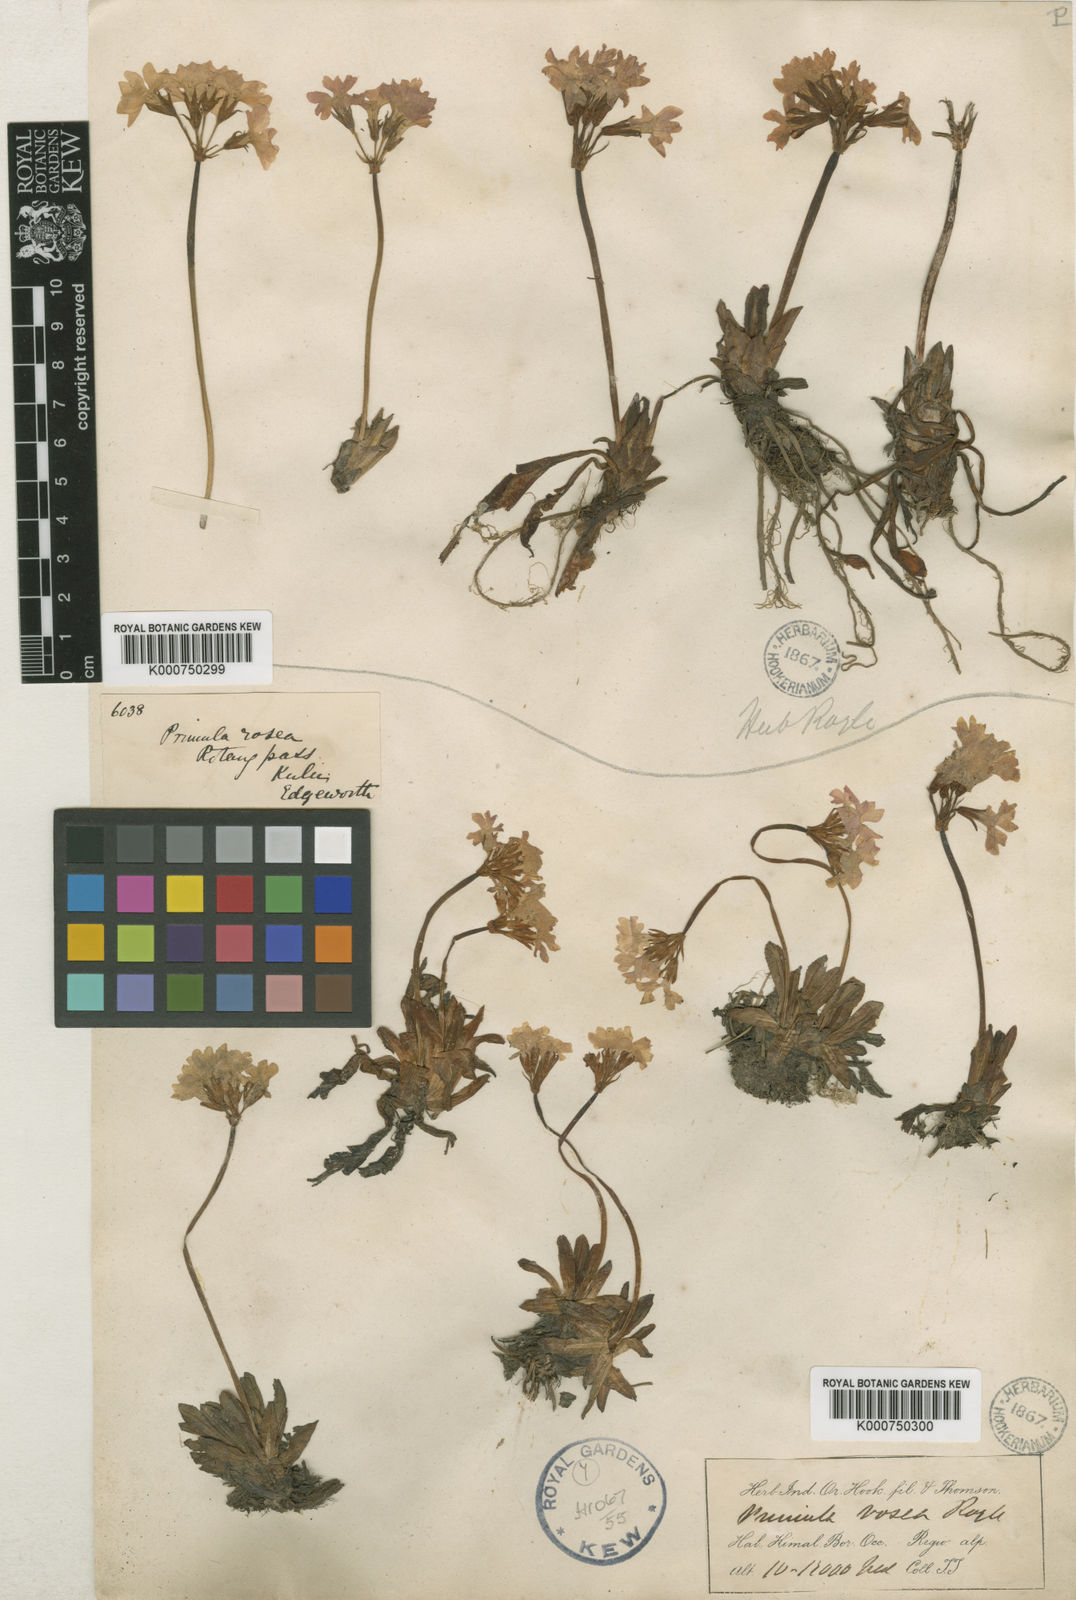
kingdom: Plantae
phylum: Tracheophyta
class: Magnoliopsida
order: Ericales
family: Primulaceae
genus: Primula
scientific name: Primula rosea
